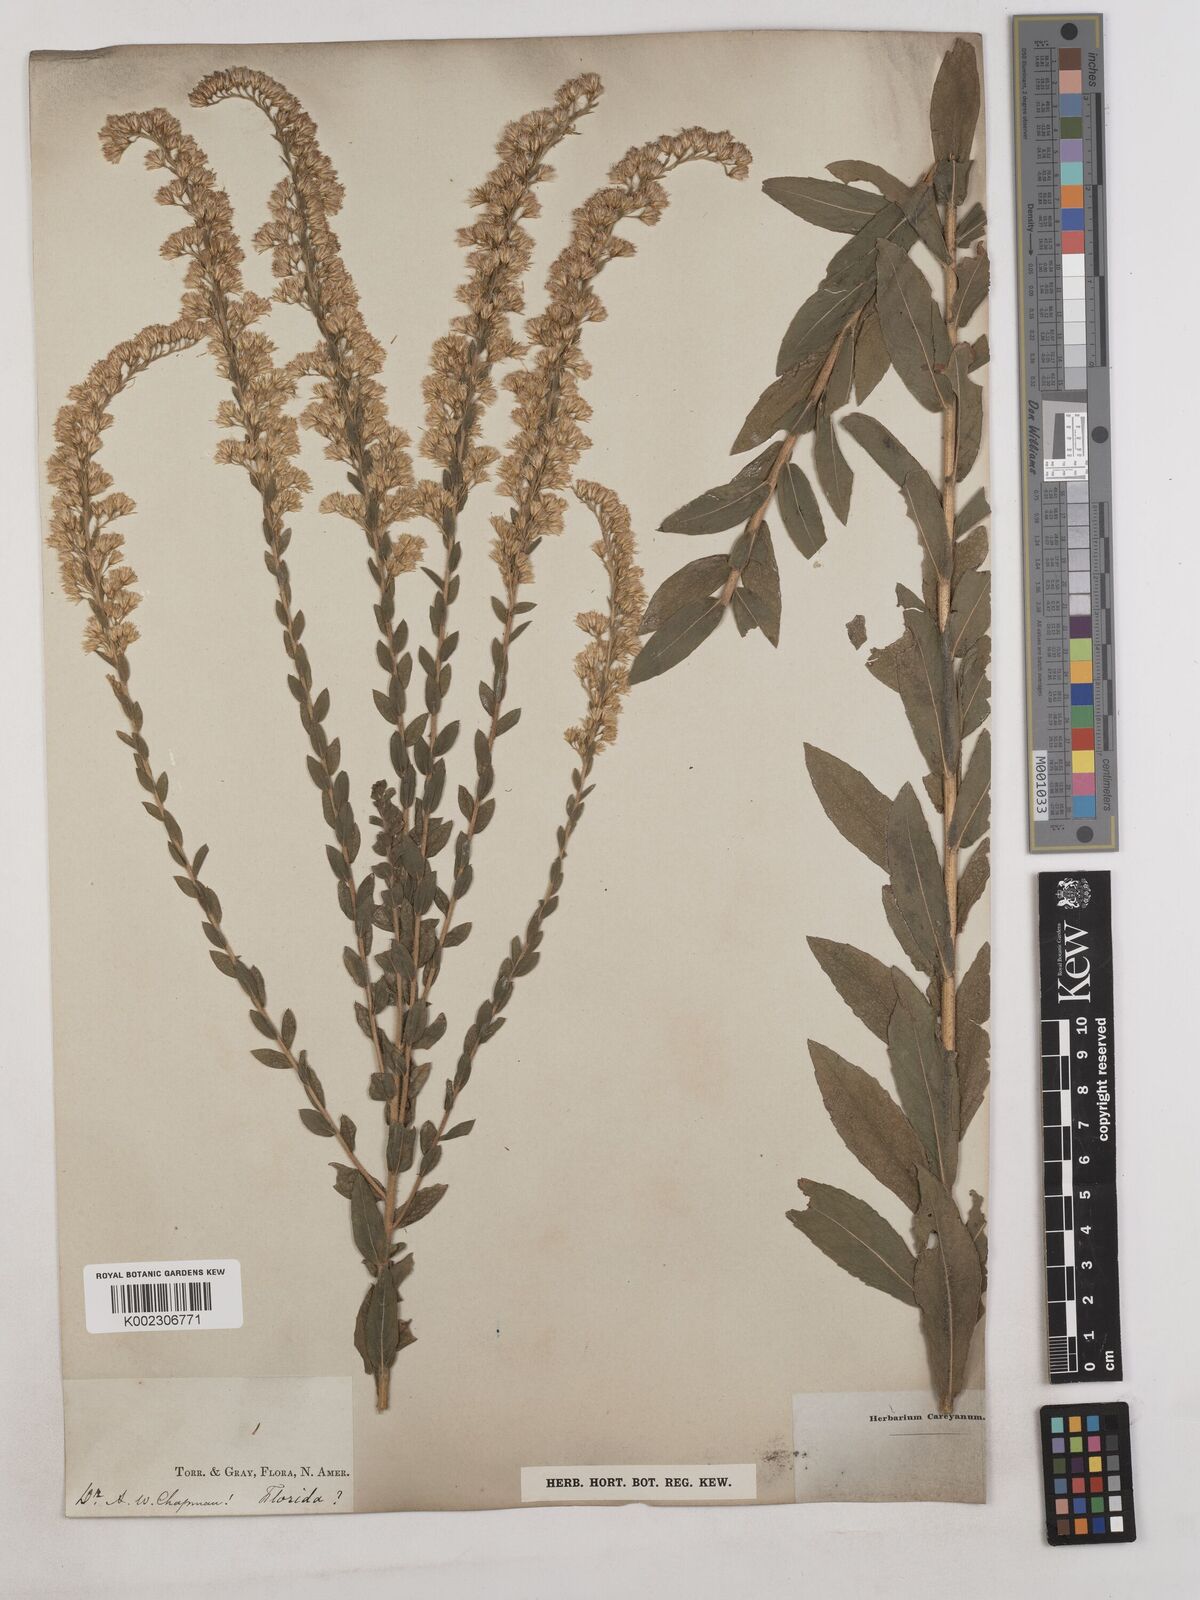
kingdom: Plantae
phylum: Tracheophyta
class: Magnoliopsida
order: Asterales
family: Asteraceae
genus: Solidago
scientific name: Solidago fistulosa
